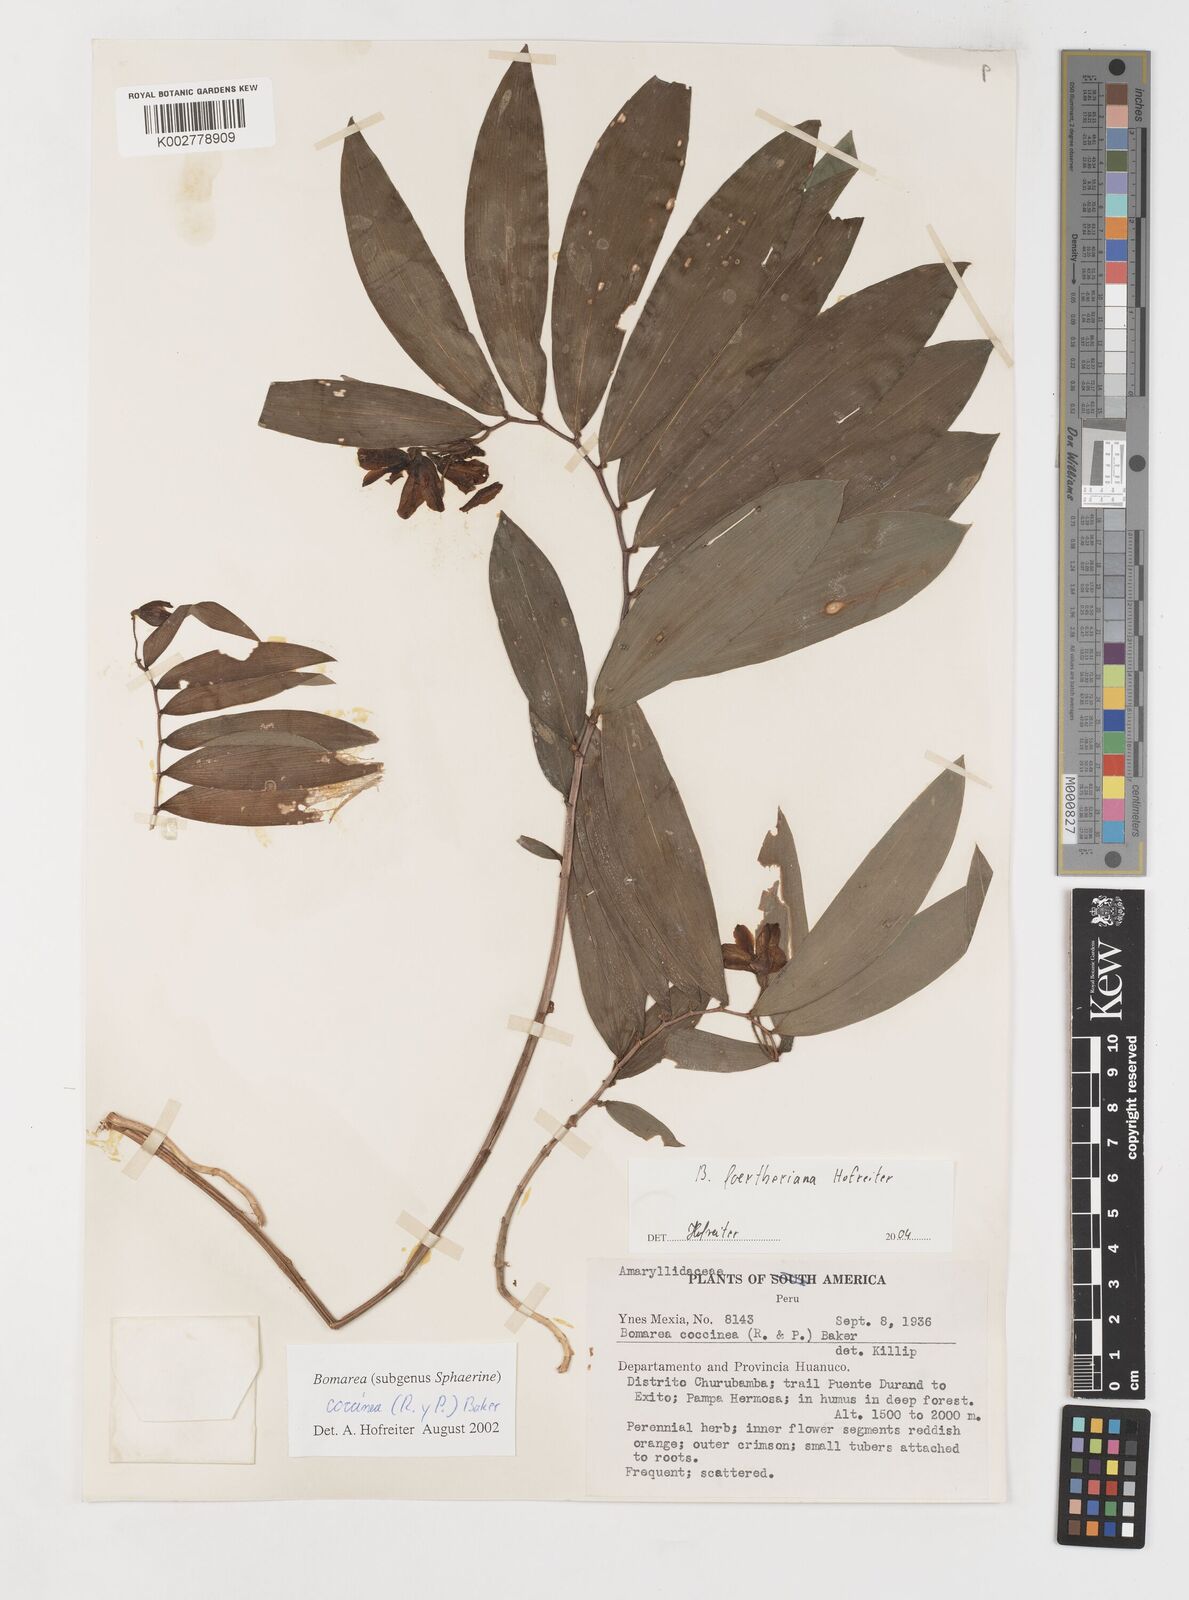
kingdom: Plantae
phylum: Tracheophyta
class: Liliopsida
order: Liliales
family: Alstroemeriaceae
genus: Bomarea
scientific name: Bomarea foertheriana
